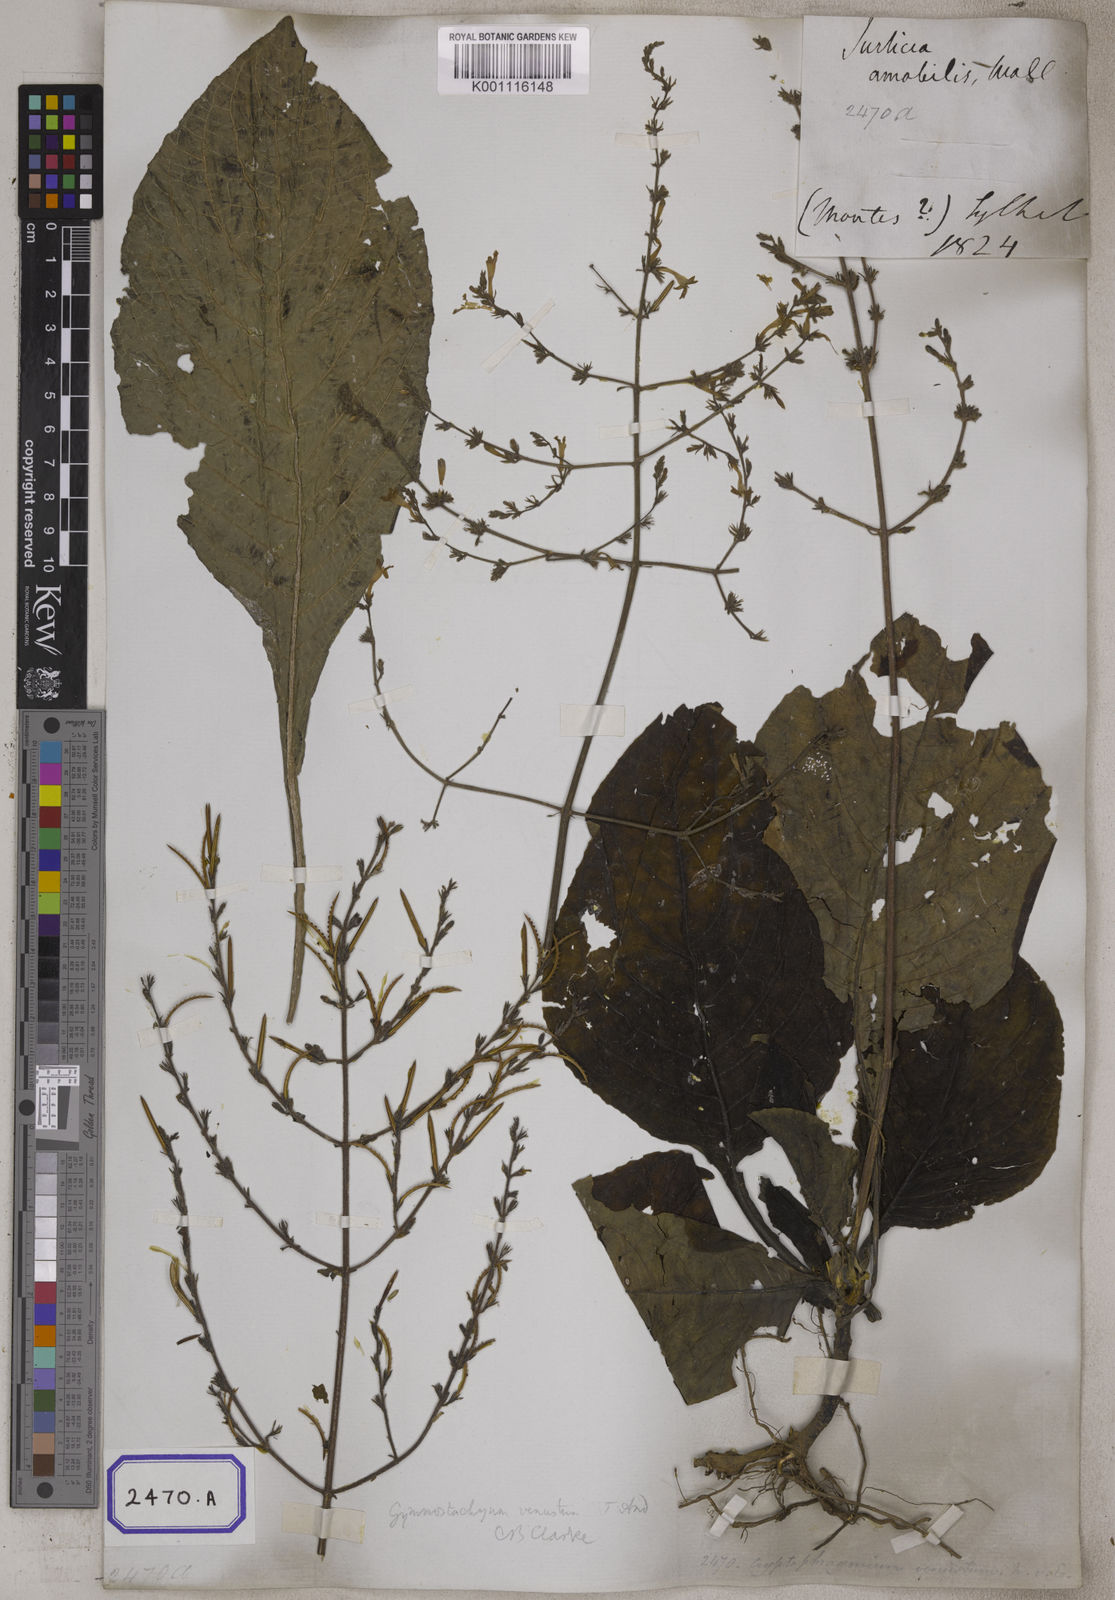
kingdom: Plantae
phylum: Tracheophyta
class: Magnoliopsida
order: Lamiales
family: Acanthaceae
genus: Gymnostachyum
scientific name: Gymnostachyum venustum
